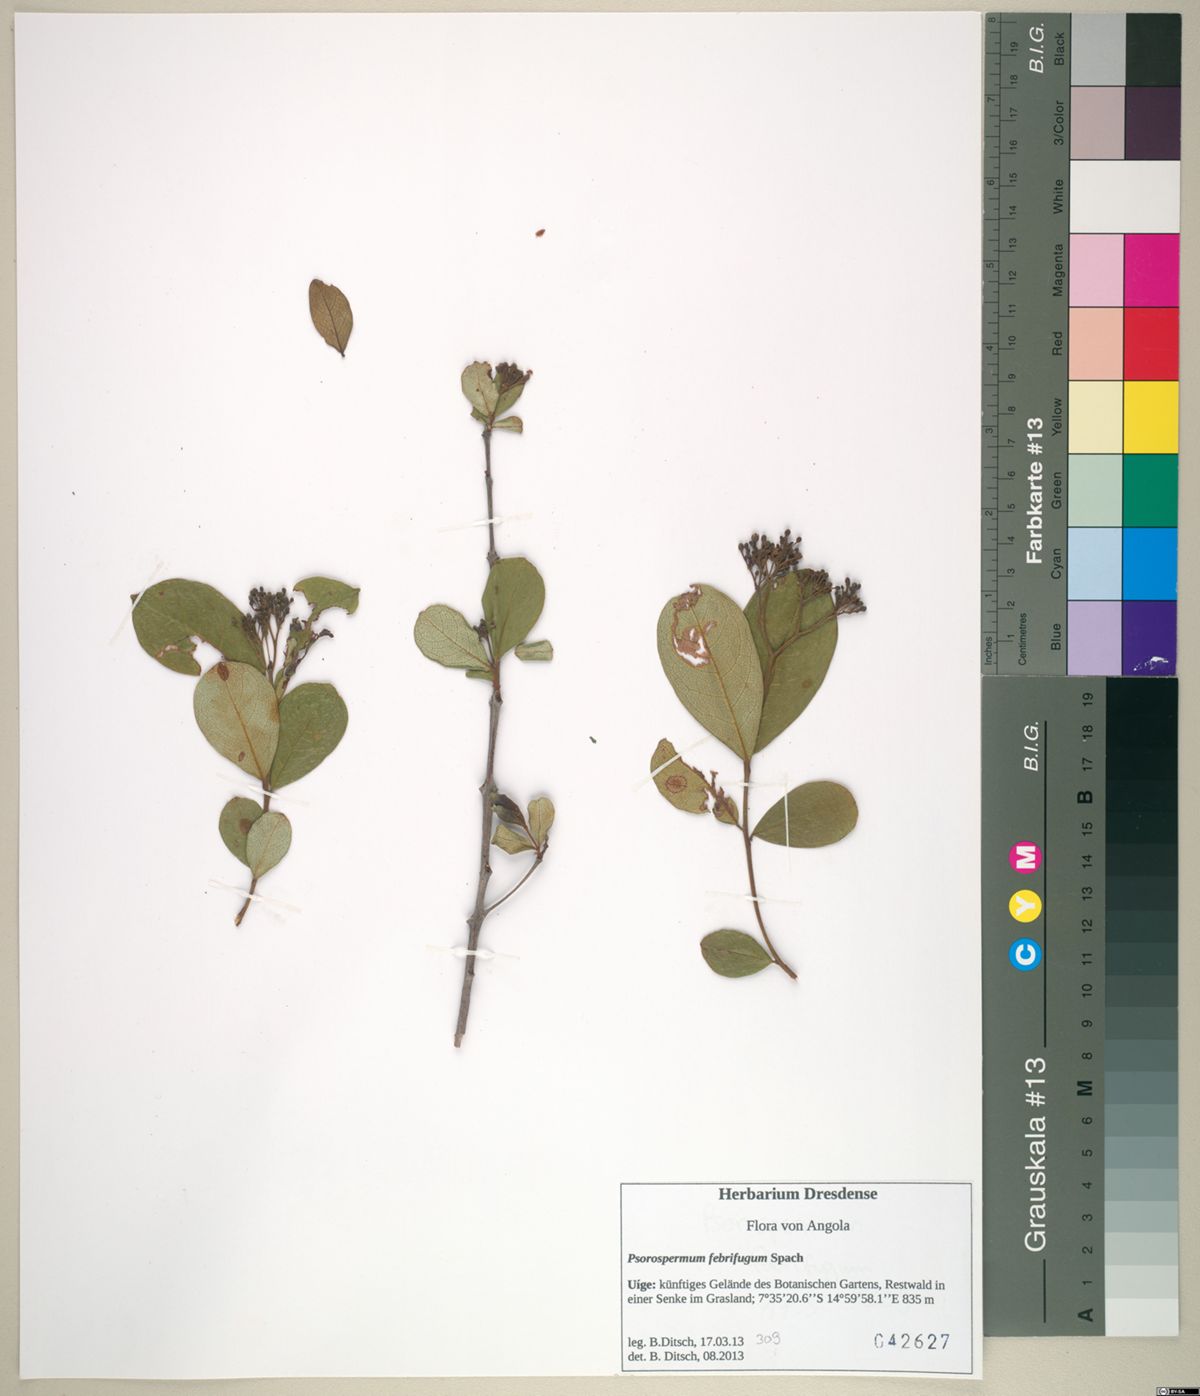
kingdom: Plantae
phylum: Tracheophyta
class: Magnoliopsida
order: Malpighiales
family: Hypericaceae
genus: Psorospermum
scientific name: Psorospermum febrifugum
